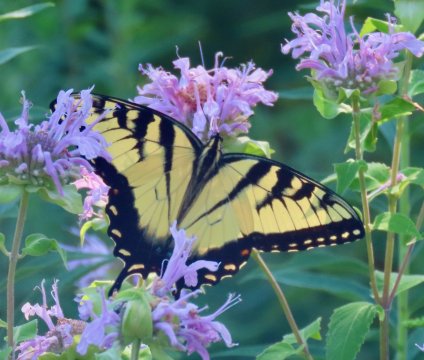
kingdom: Animalia
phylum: Arthropoda
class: Insecta
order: Lepidoptera
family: Papilionidae
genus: Pterourus
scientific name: Pterourus glaucus
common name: Eastern Tiger Swallowtail
